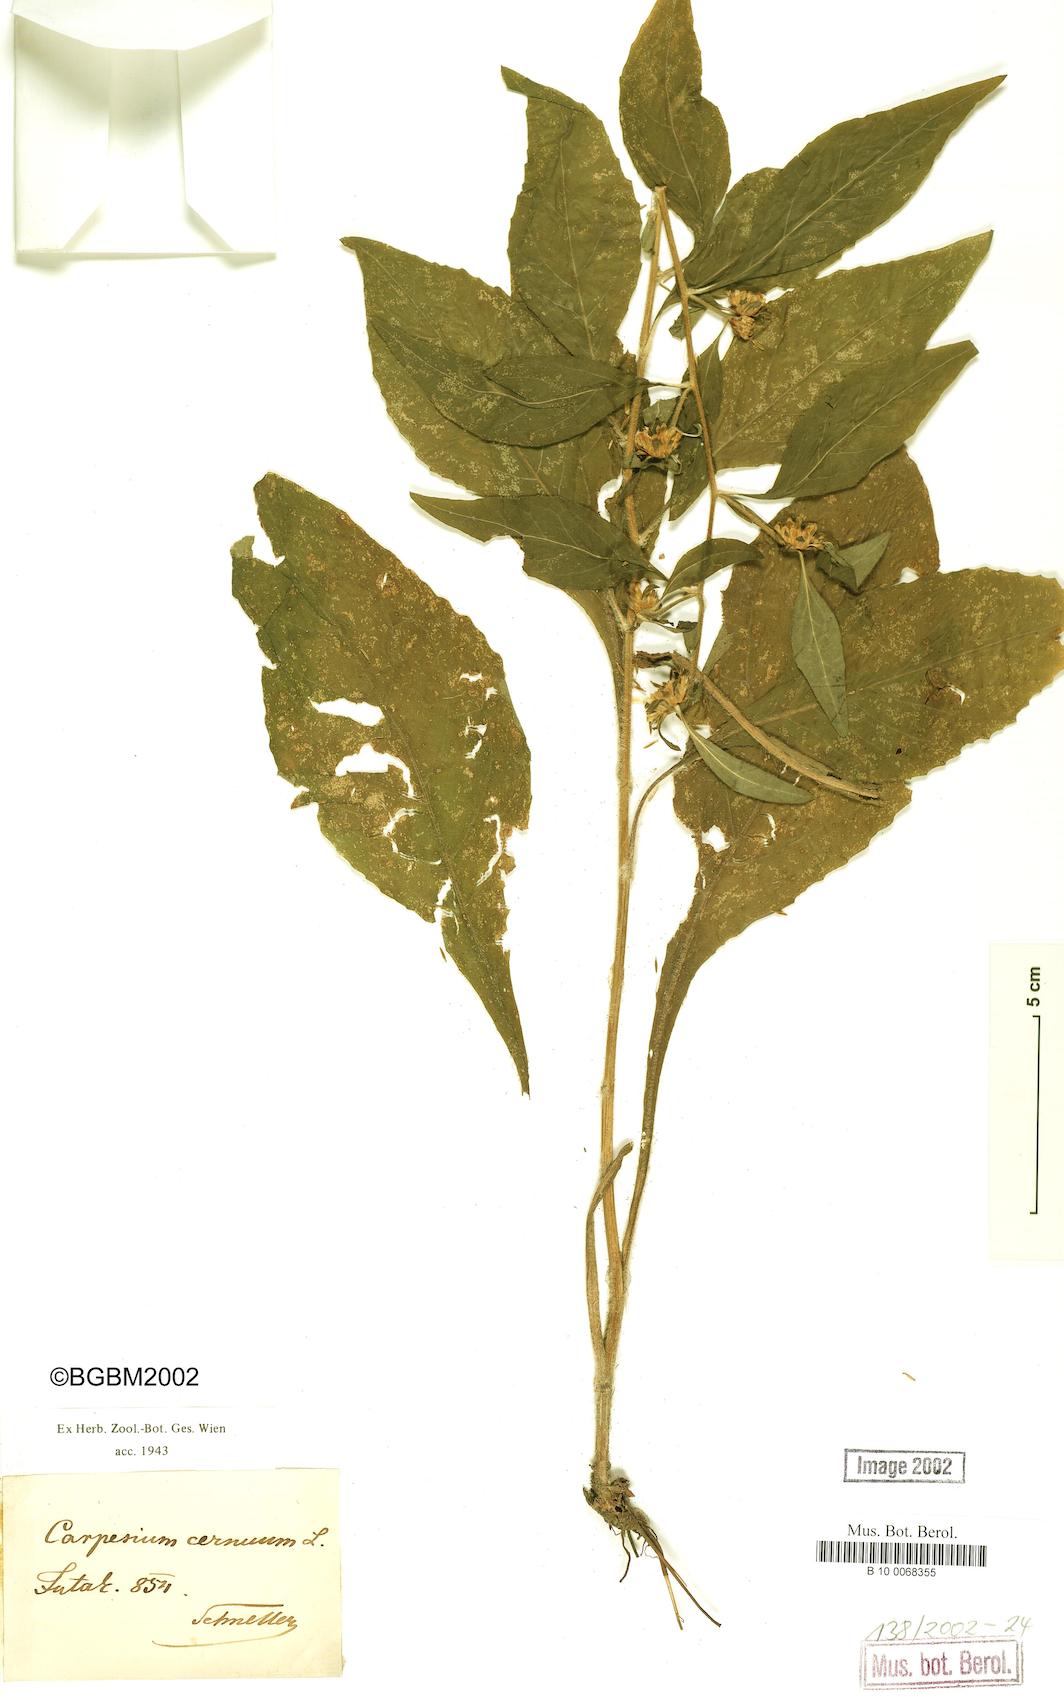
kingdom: Plantae
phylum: Tracheophyta
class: Magnoliopsida
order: Asterales
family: Asteraceae
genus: Carpesium
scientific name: Carpesium cernuum
